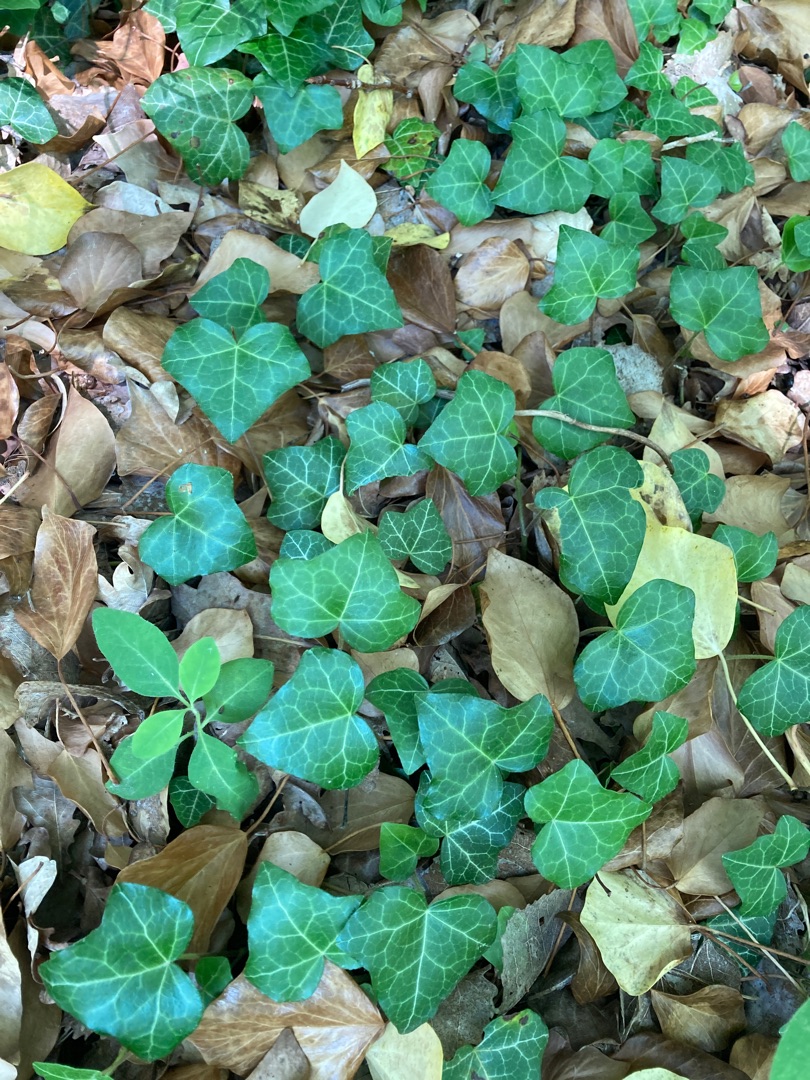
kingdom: Plantae
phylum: Tracheophyta
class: Magnoliopsida
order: Apiales
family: Araliaceae
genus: Hedera
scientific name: Hedera helix
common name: Vedbend
